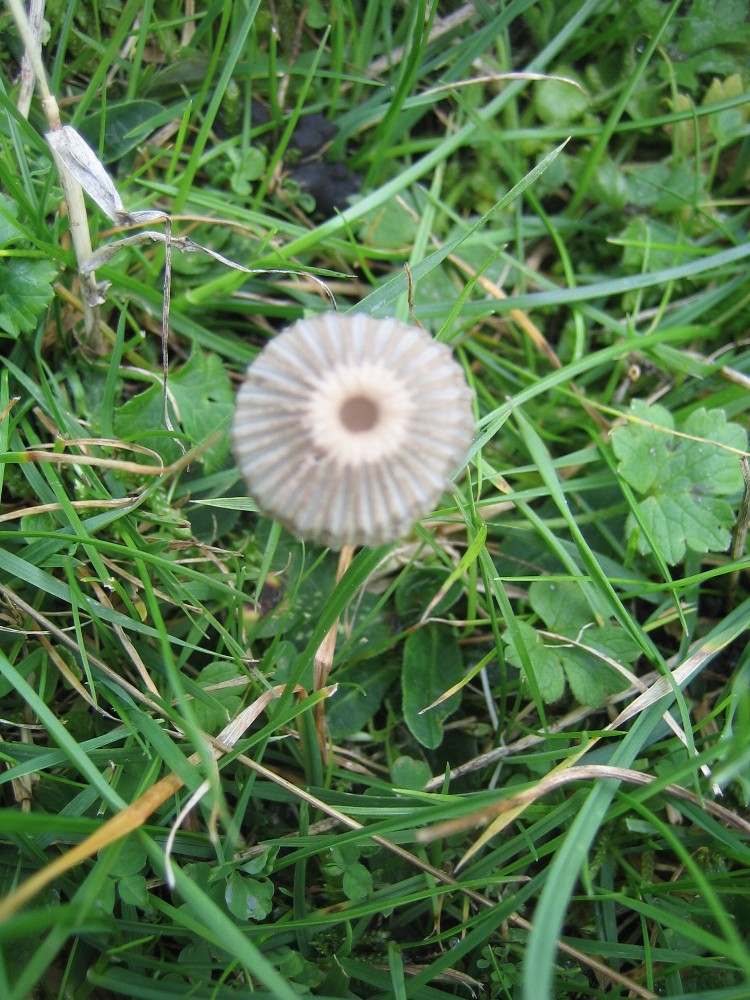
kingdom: Fungi
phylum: Basidiomycota
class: Agaricomycetes
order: Agaricales
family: Psathyrellaceae
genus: Parasola
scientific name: Parasola
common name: hjulhat
